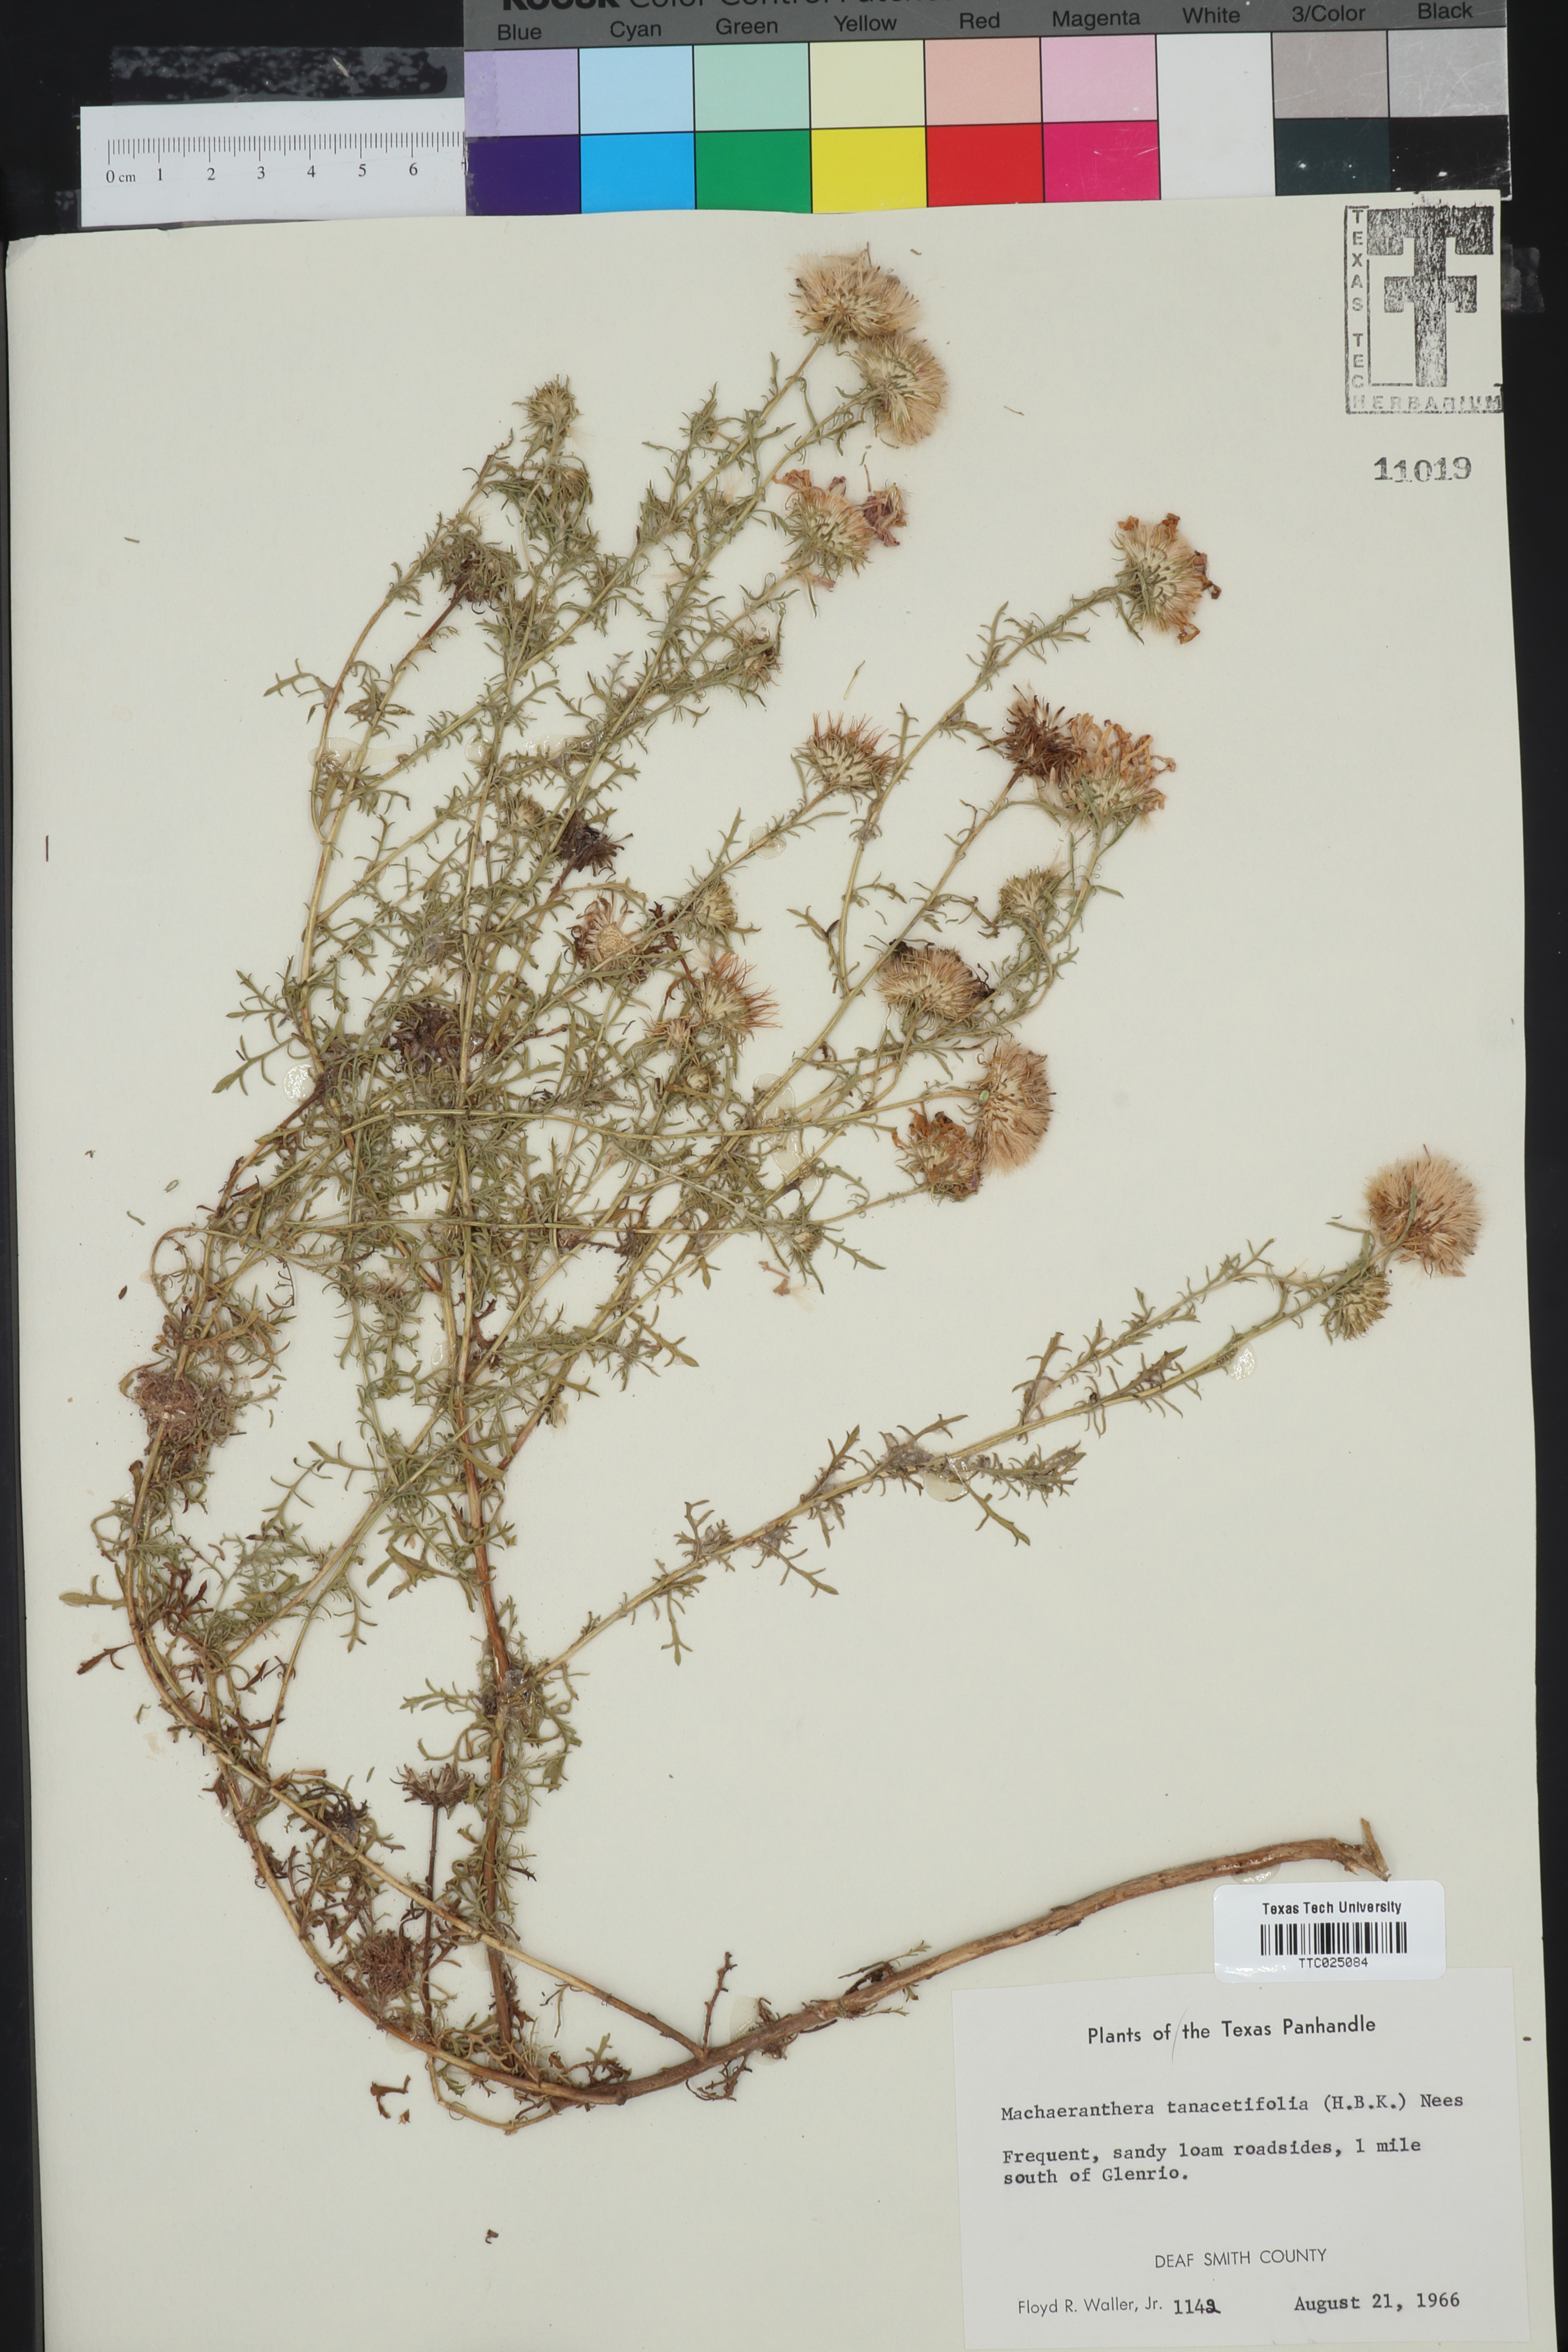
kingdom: Plantae
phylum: Tracheophyta
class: Magnoliopsida
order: Asterales
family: Asteraceae
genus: Machaeranthera
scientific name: Machaeranthera tanacetifolia
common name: Tansy-aster
